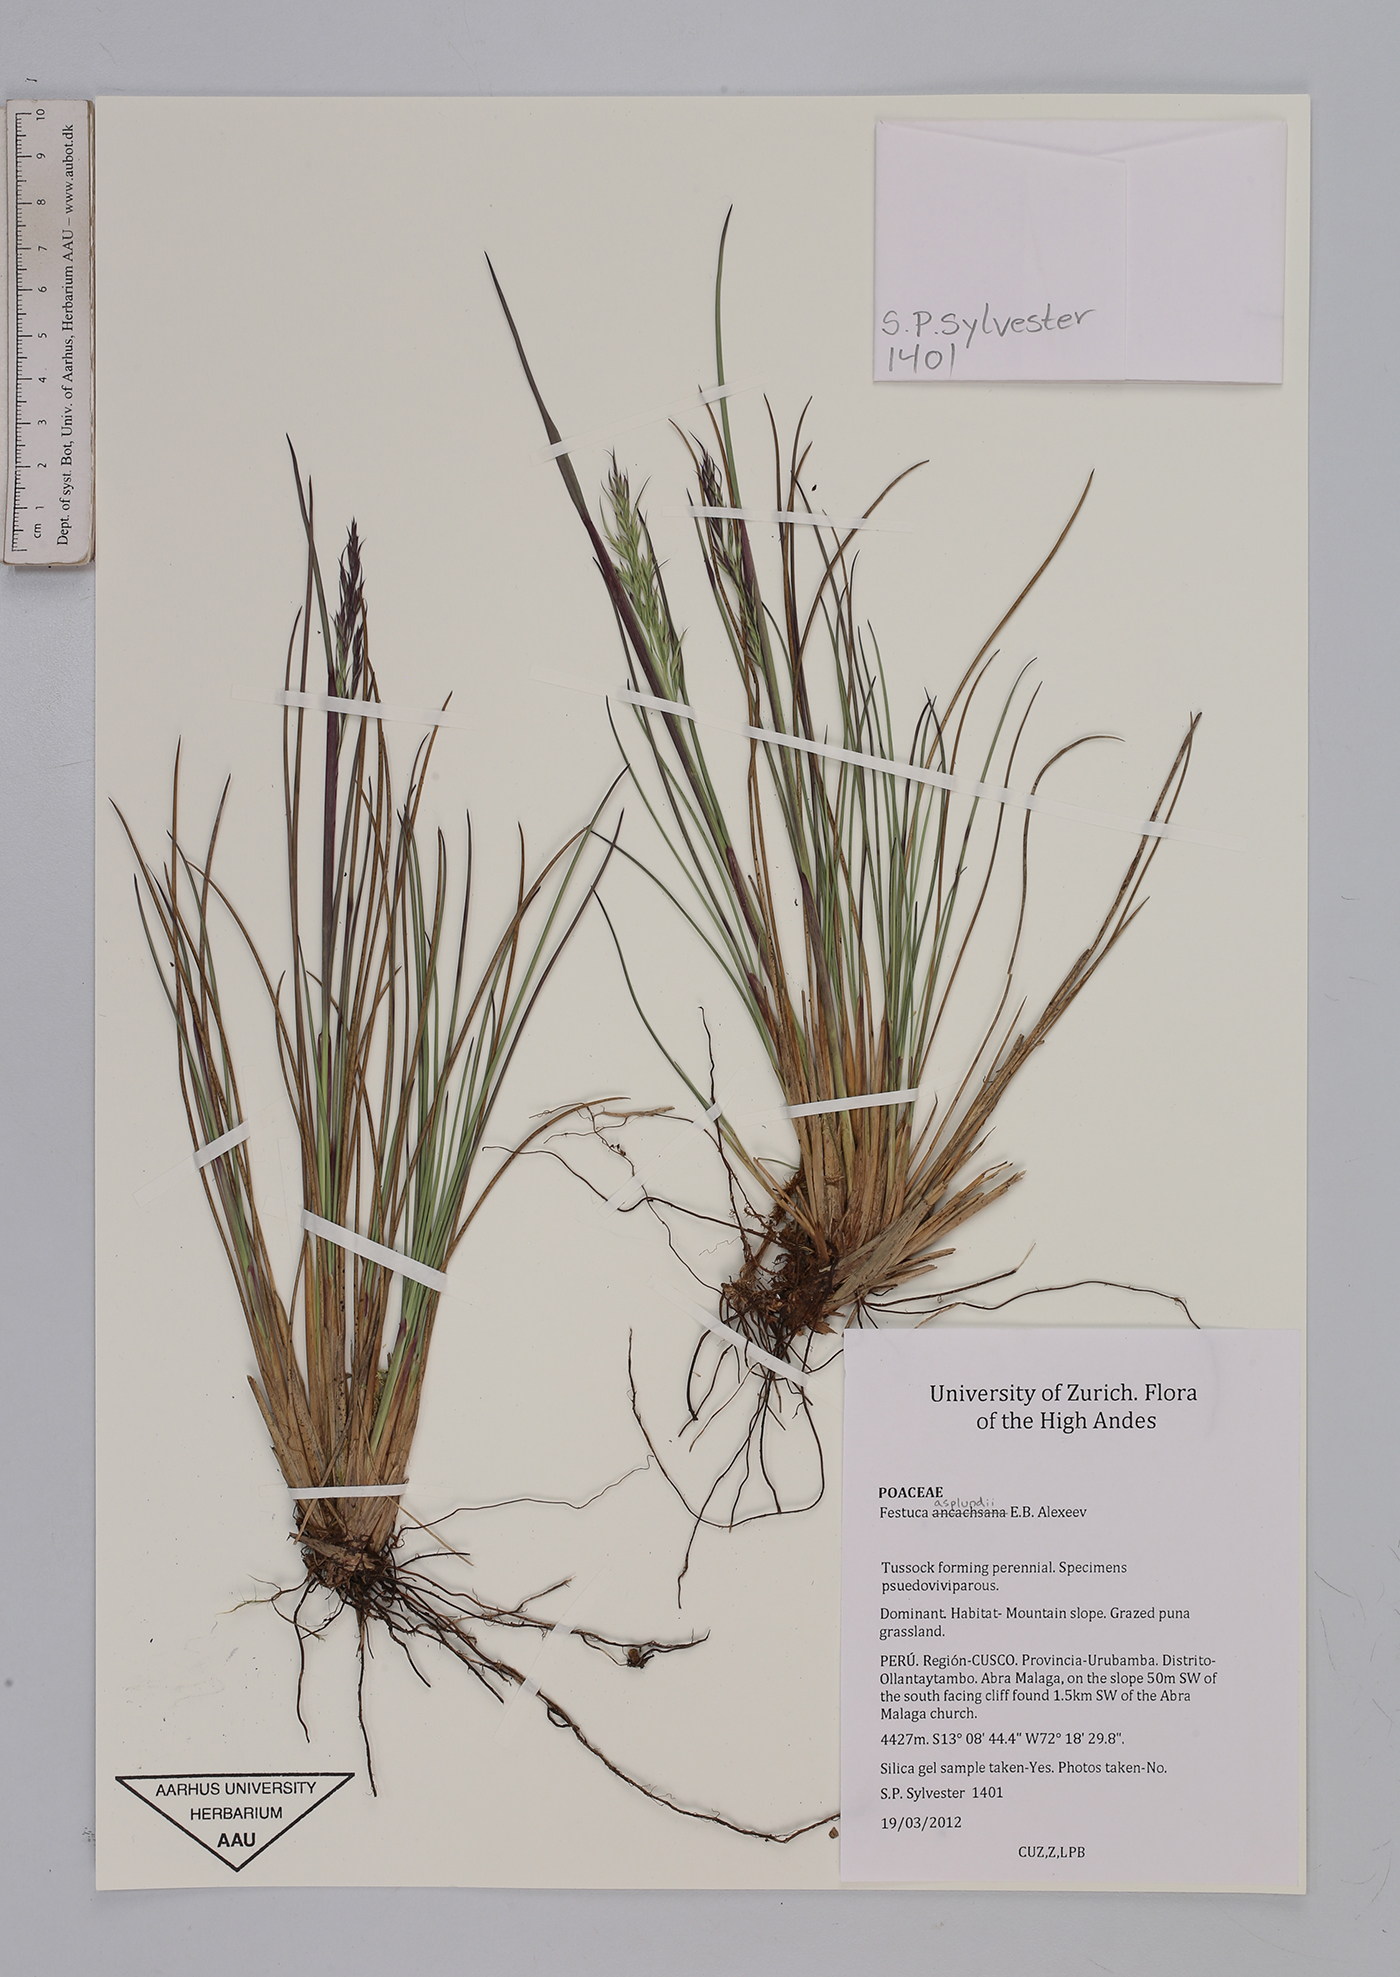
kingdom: Plantae
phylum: Tracheophyta
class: Liliopsida
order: Poales
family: Poaceae
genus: Festuca
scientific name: Festuca asplundii
